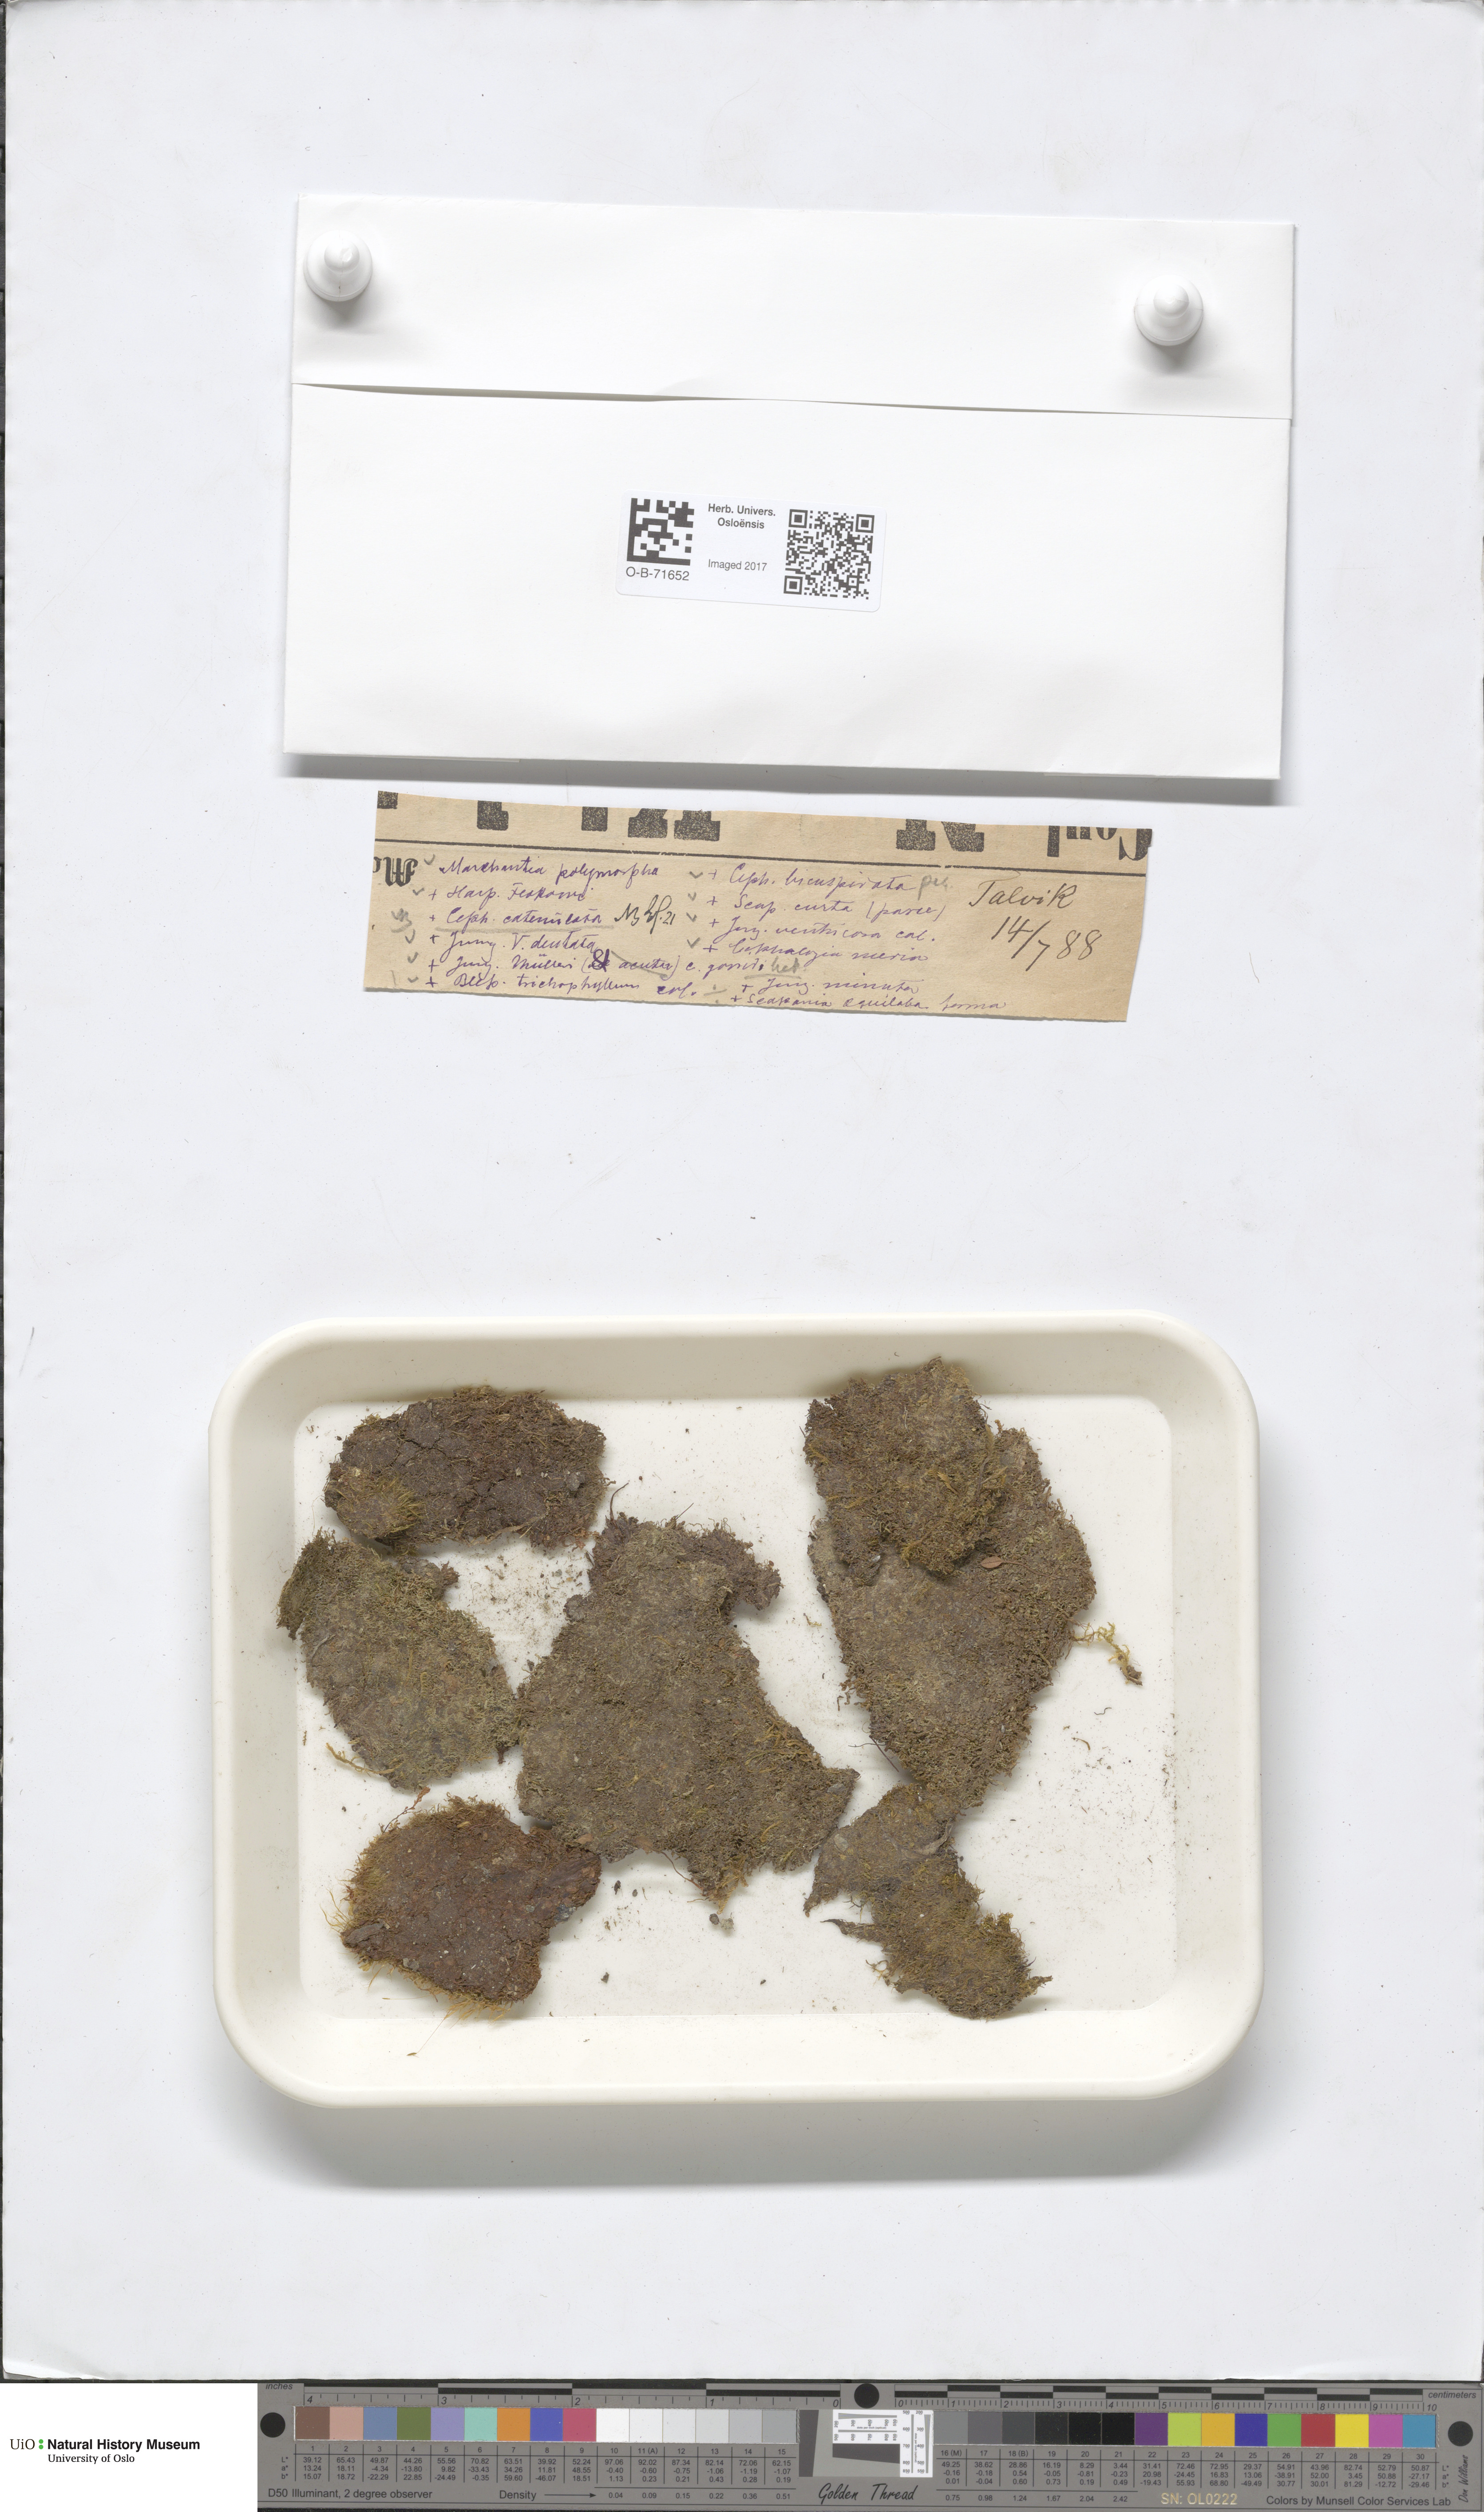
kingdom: Plantae
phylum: Marchantiophyta
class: Jungermanniopsida
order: Jungermanniales
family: Cephaloziaceae
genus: Cephalozia
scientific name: Cephalozia bicuspidata
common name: Two-horned pincerwort
